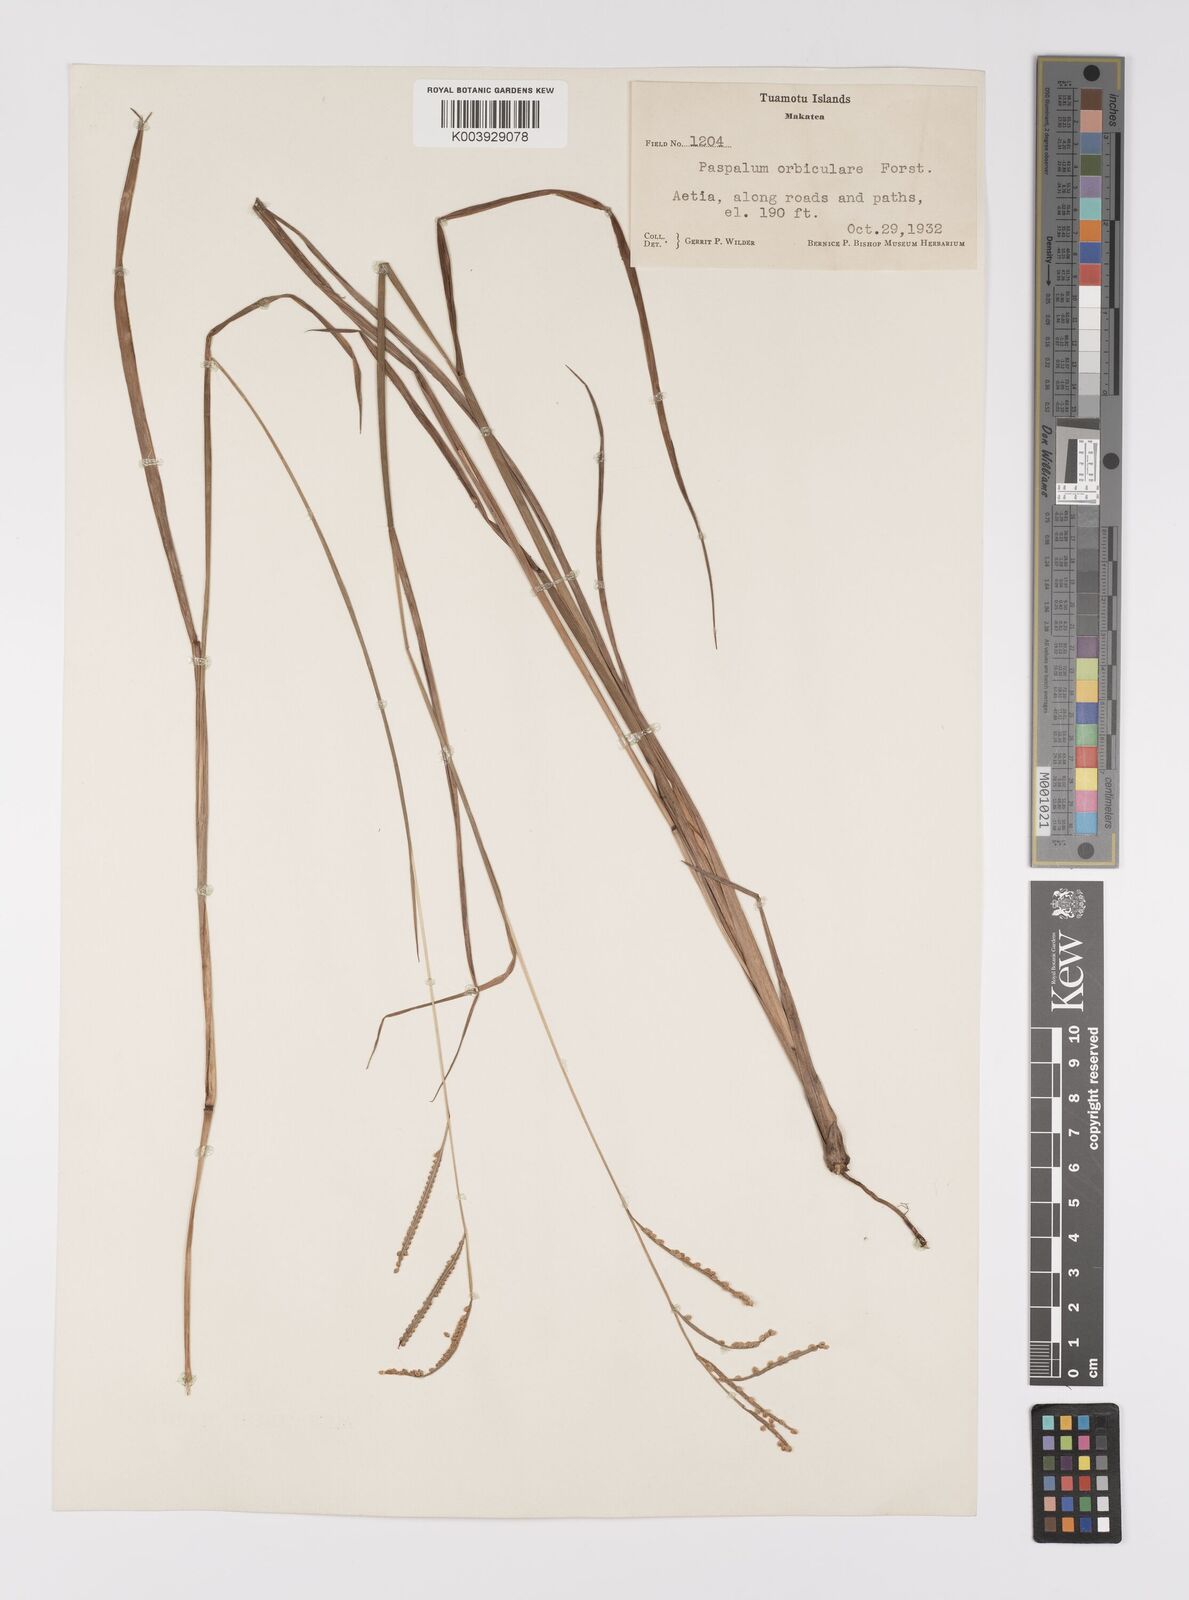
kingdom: Plantae
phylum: Tracheophyta
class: Liliopsida
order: Poales
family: Poaceae
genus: Paspalum
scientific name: Paspalum
